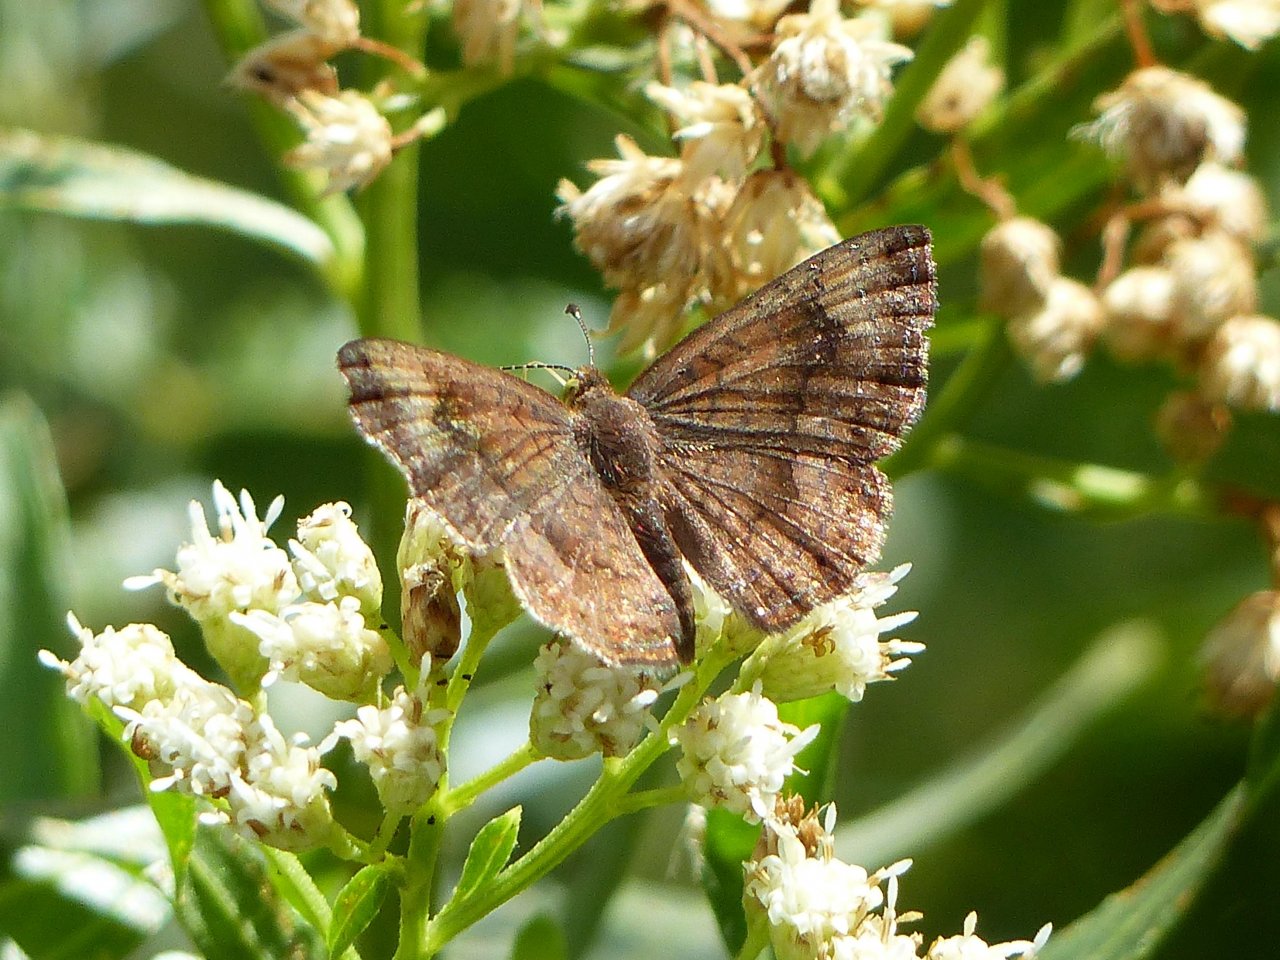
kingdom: Animalia
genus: Calephelis
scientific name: Calephelis nemesis
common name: Fatal Metalmark
